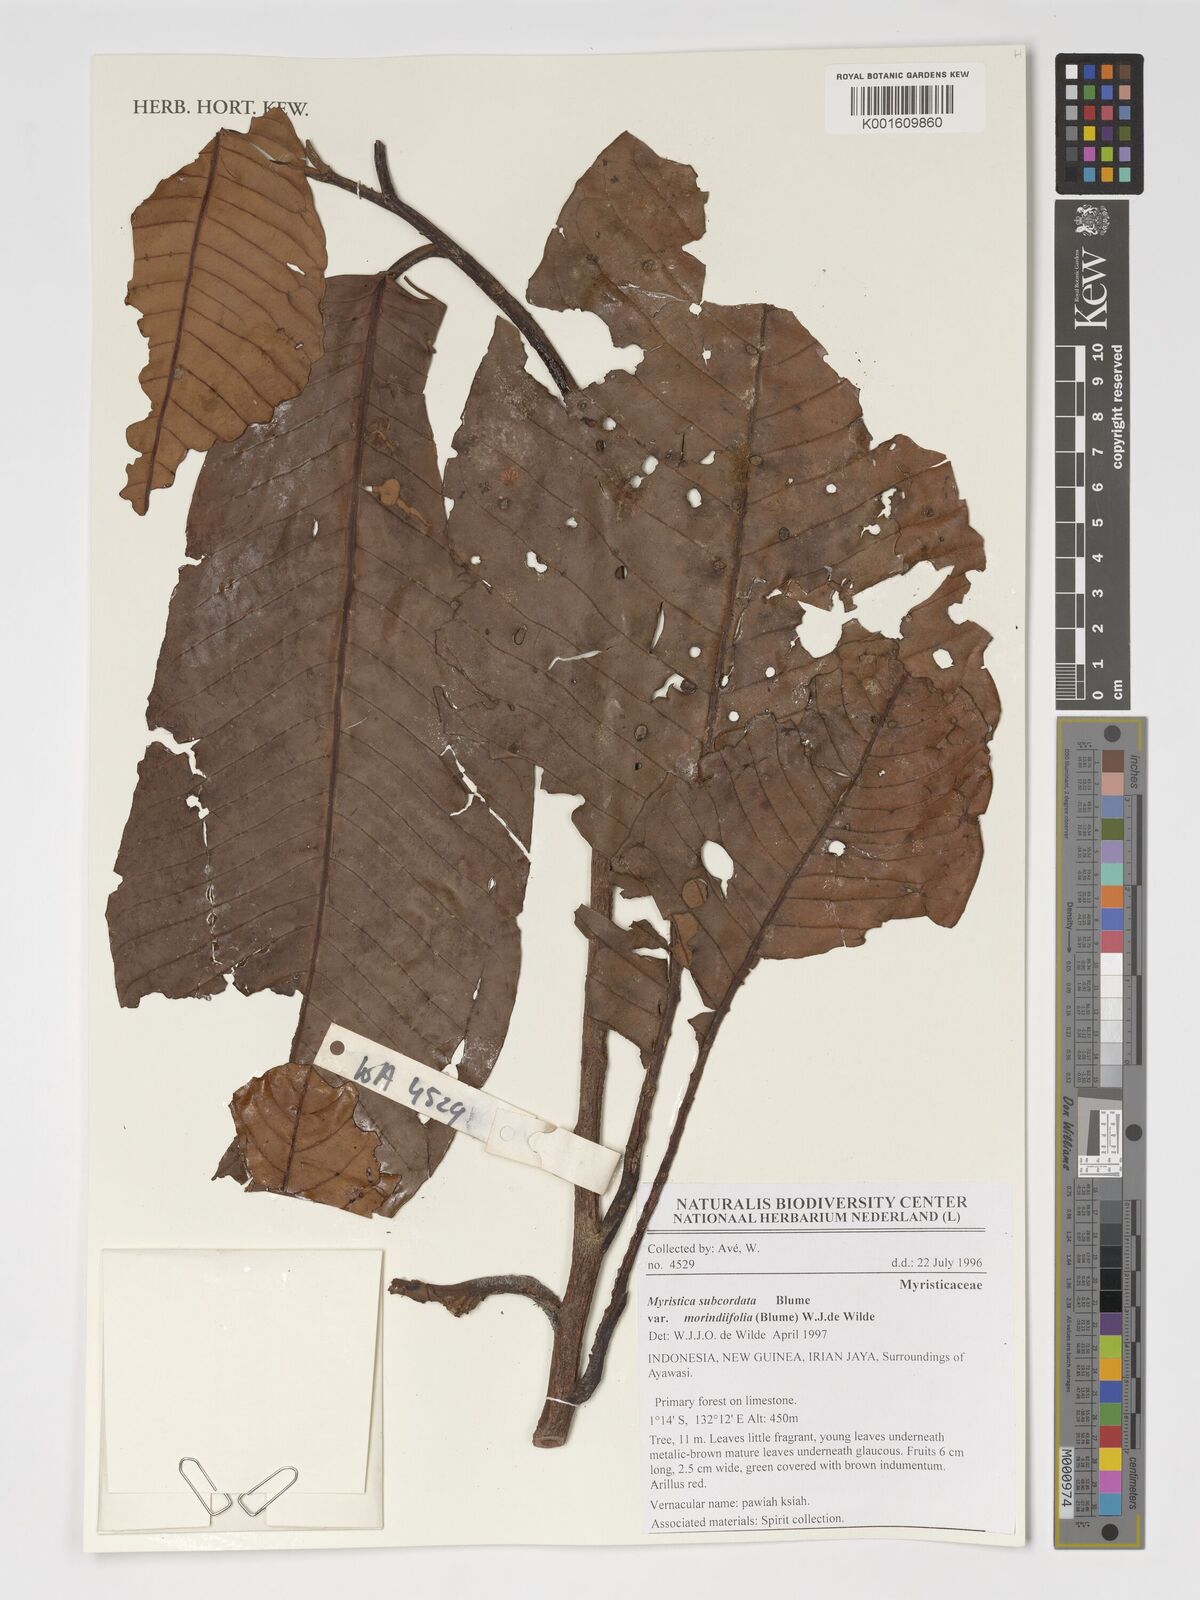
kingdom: Plantae
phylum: Tracheophyta
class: Magnoliopsida
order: Magnoliales
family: Myristicaceae
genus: Myristica
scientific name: Myristica subcordata
